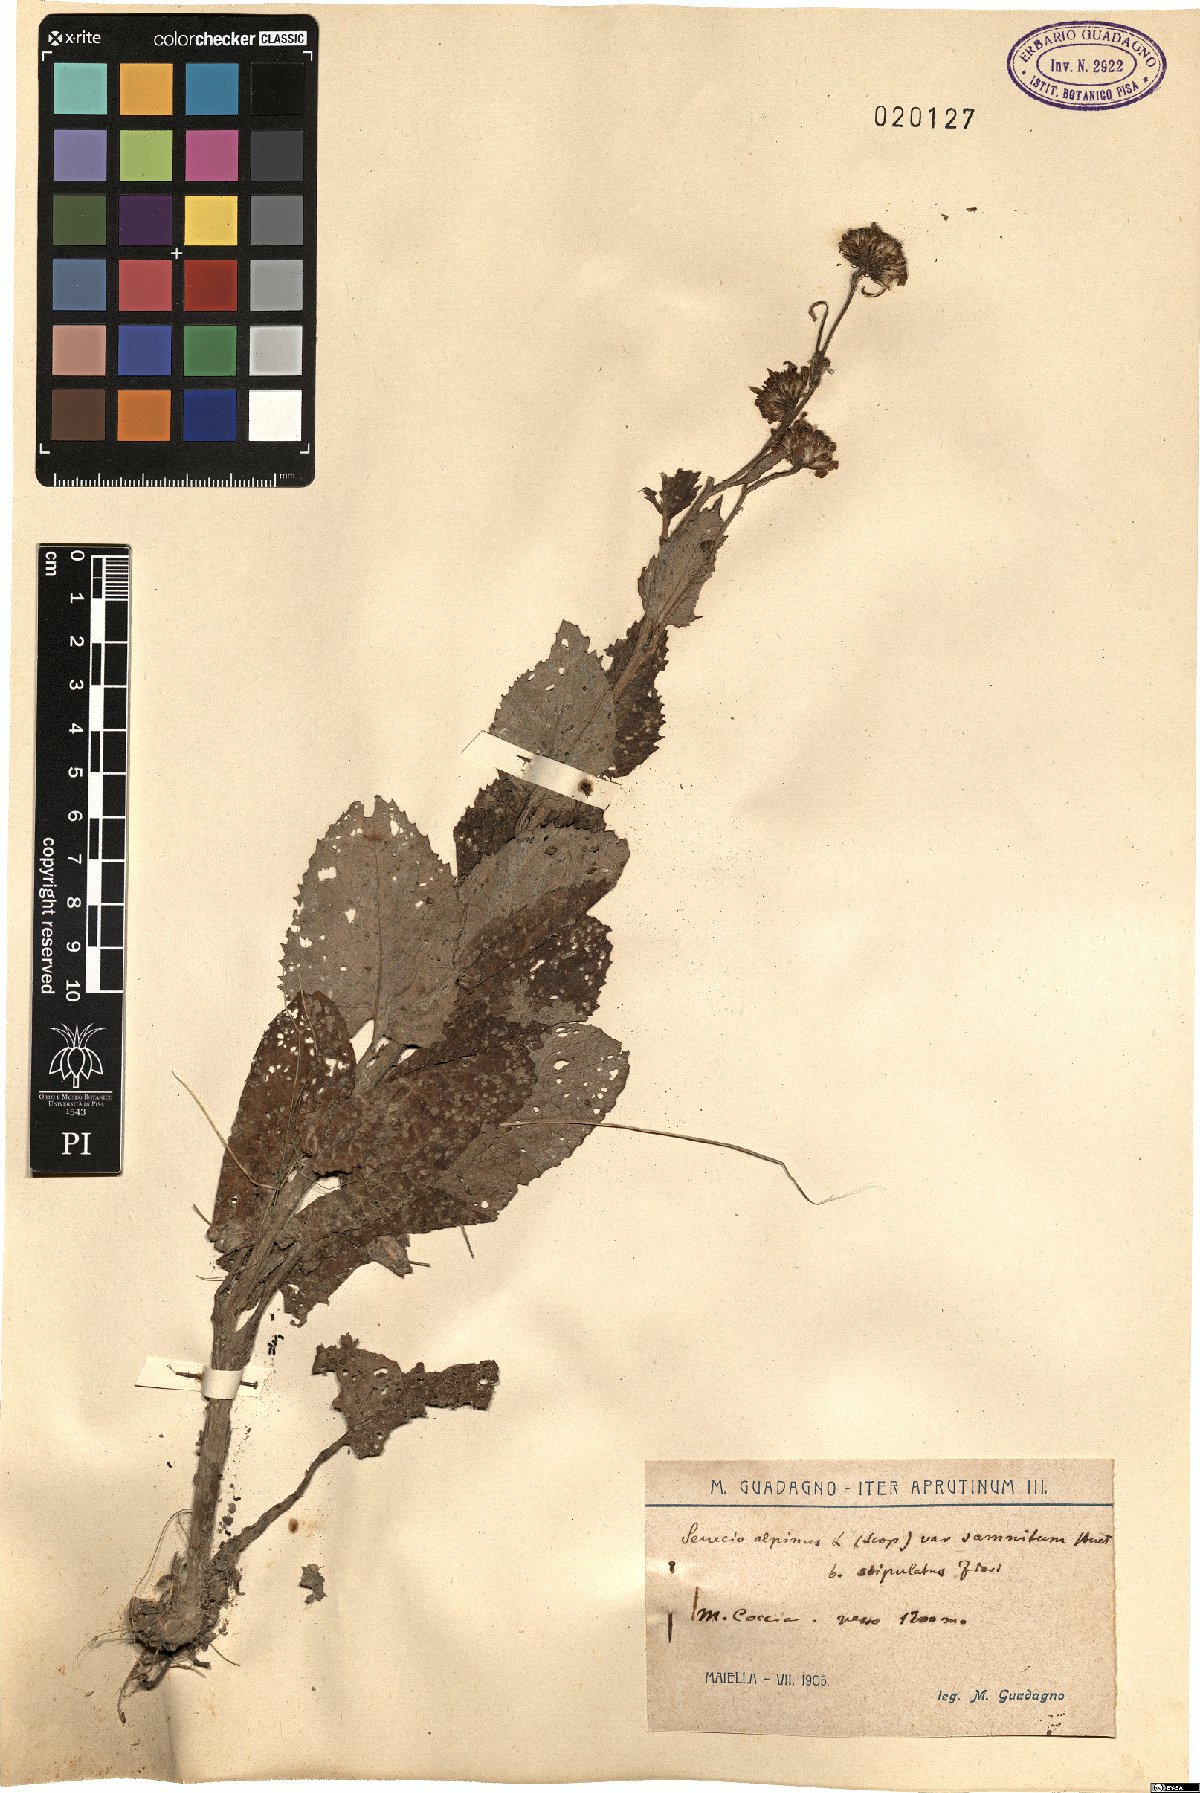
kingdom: Plantae
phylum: Tracheophyta
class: Magnoliopsida
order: Asterales
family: Asteraceae
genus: Jacobaea
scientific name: Jacobaea alpina
